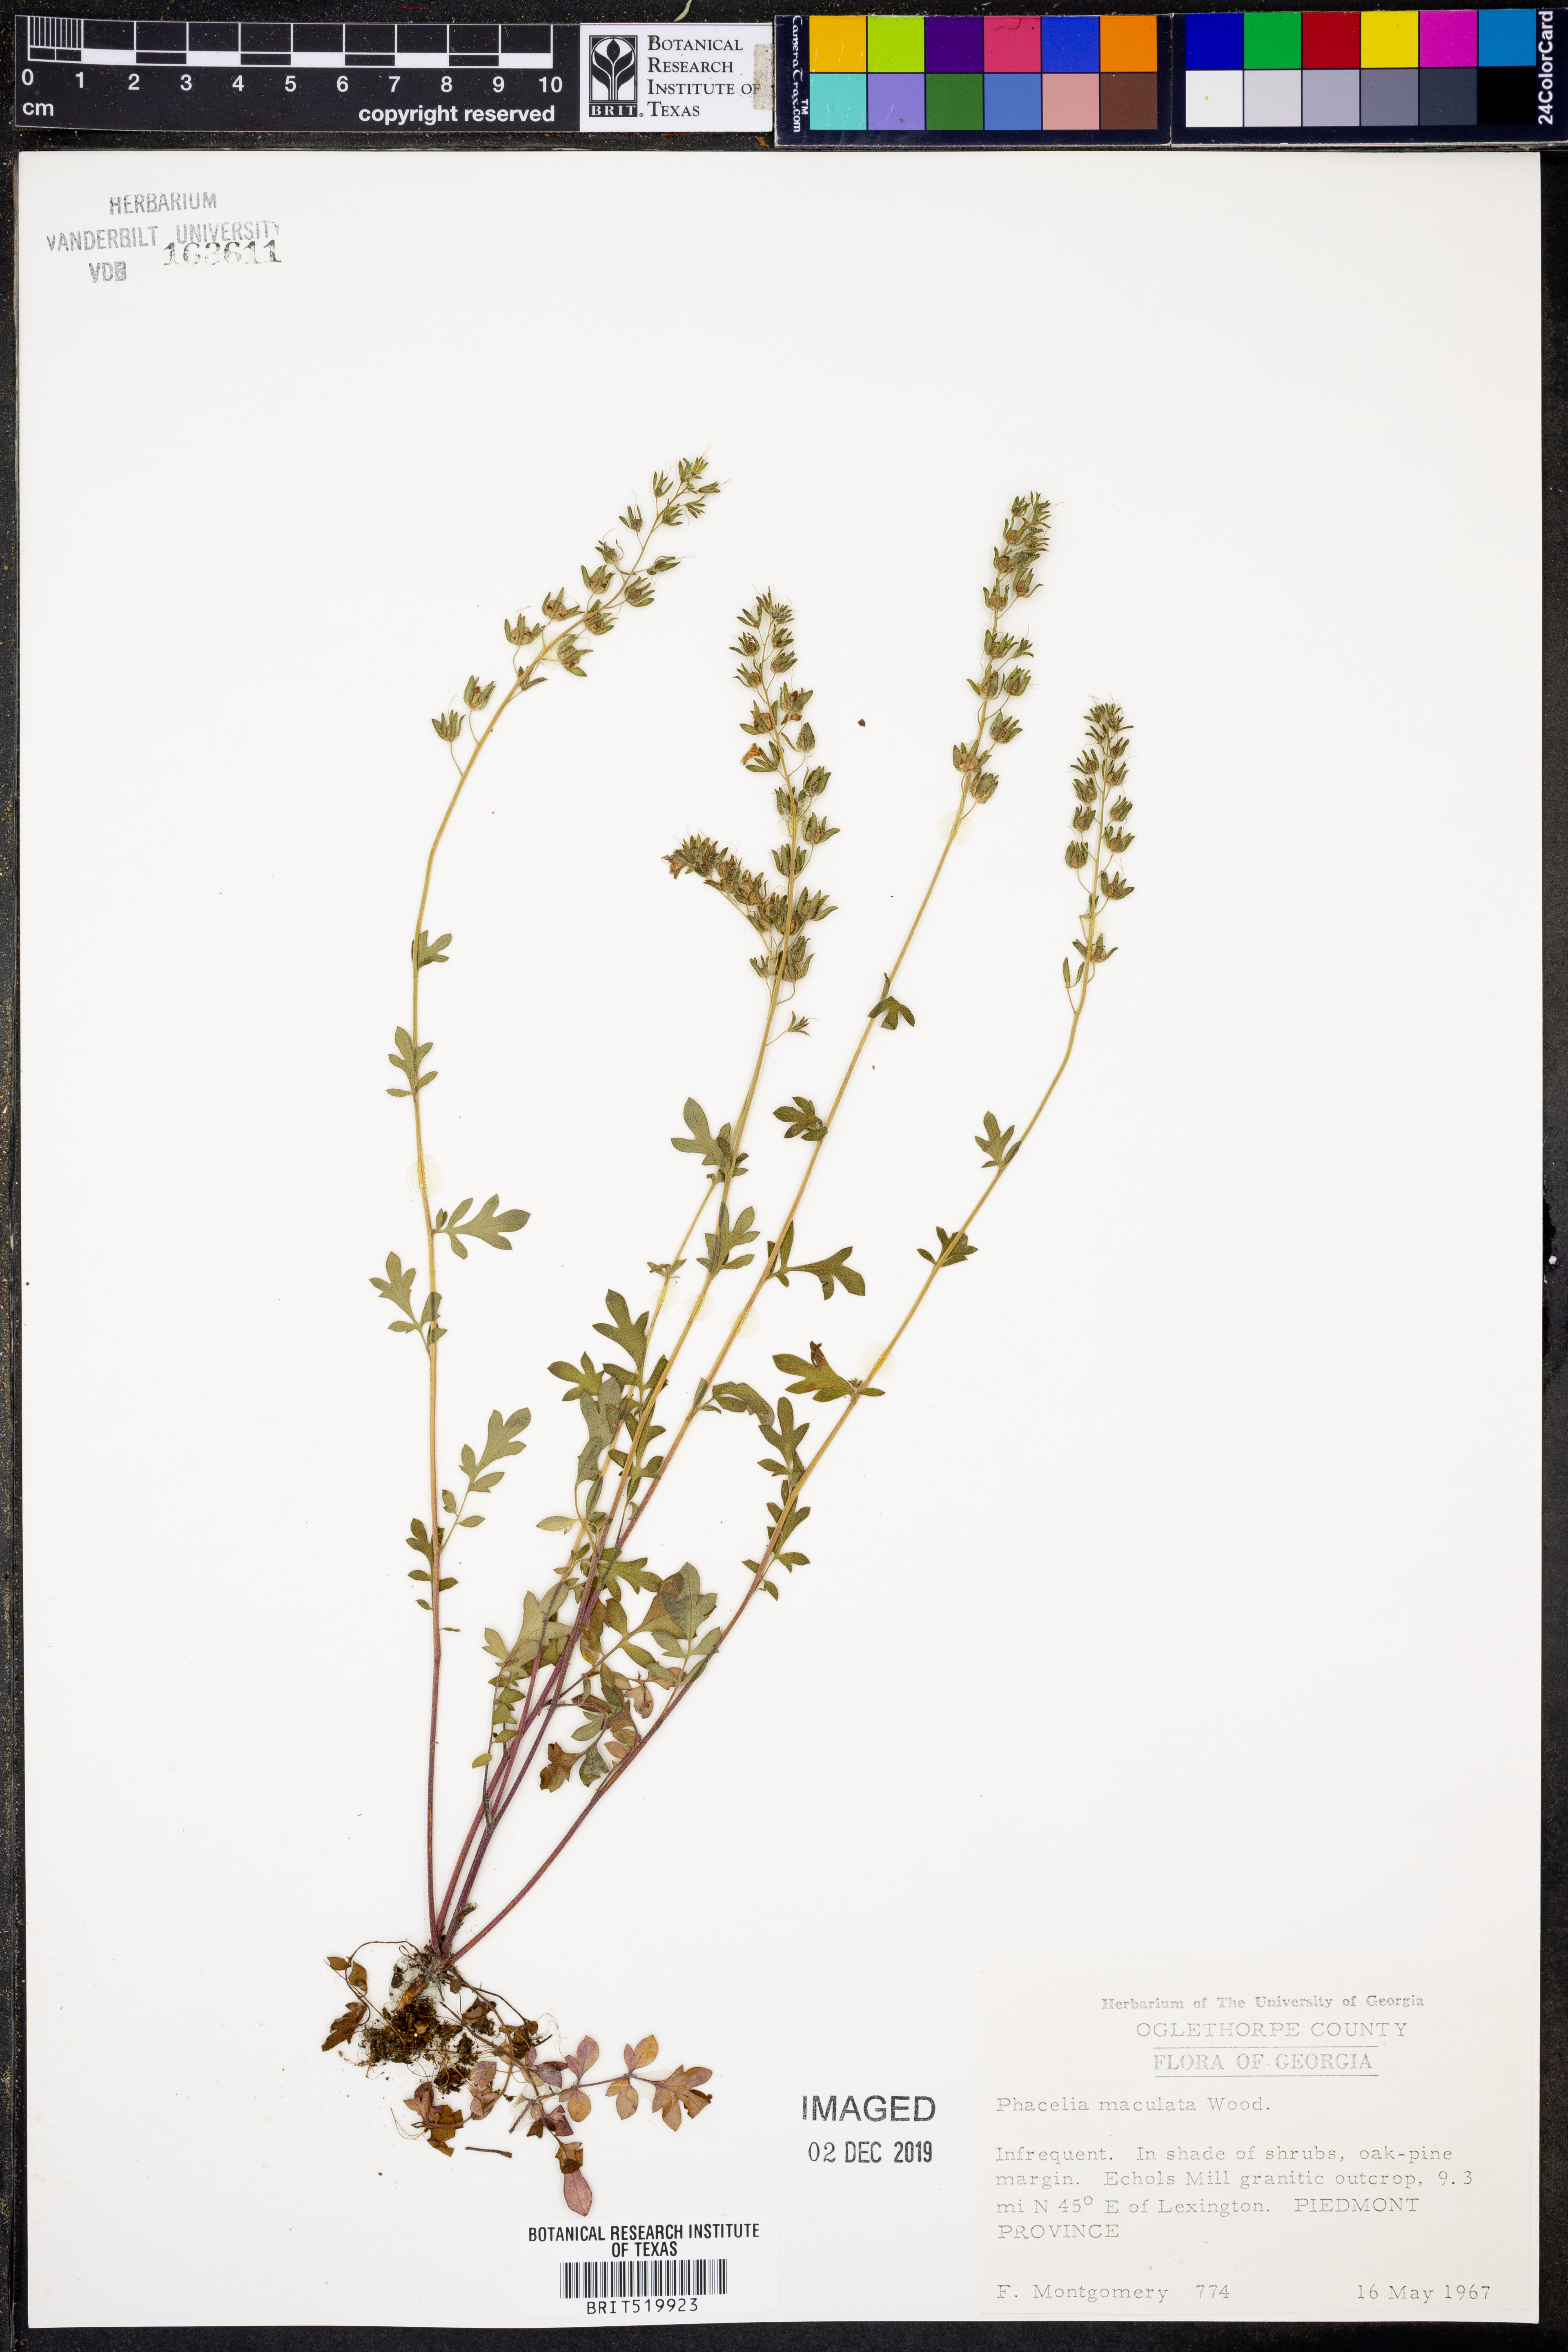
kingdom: Plantae
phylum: Tracheophyta
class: Magnoliopsida
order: Boraginales
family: Hydrophyllaceae
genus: Phacelia
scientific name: Phacelia maculata
